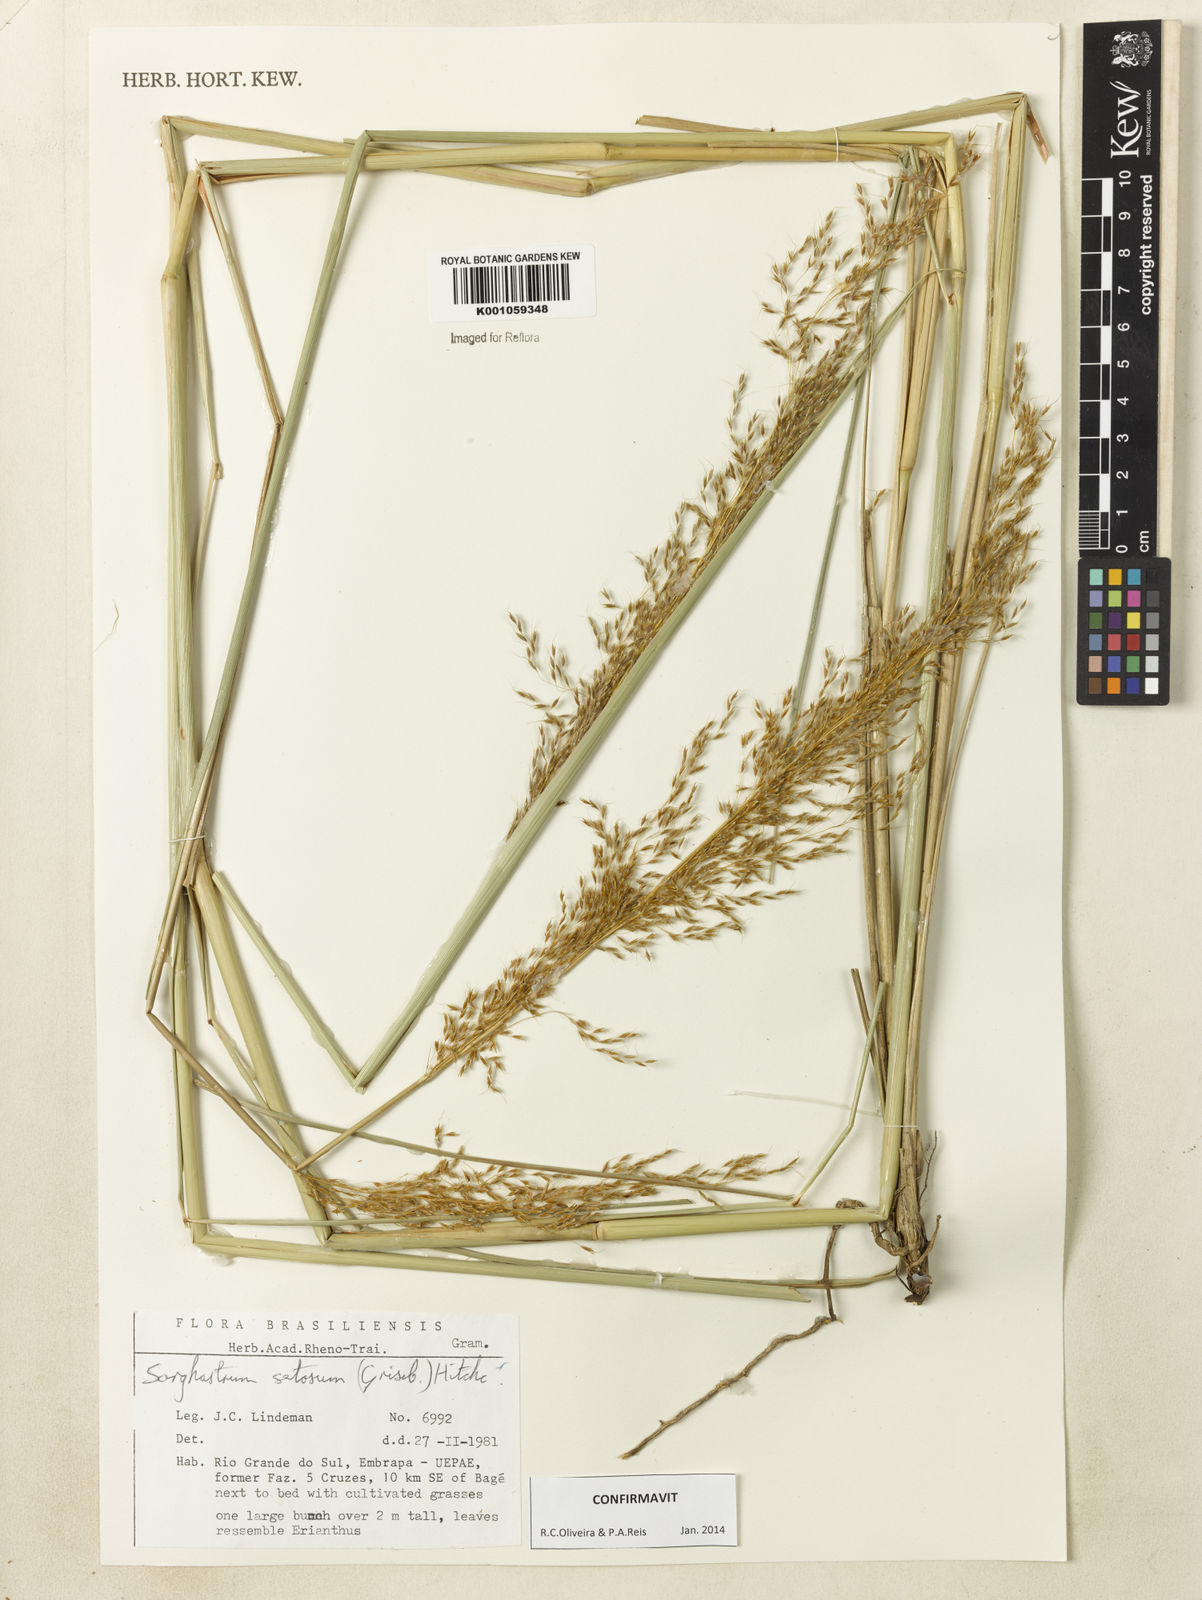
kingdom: Plantae
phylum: Tracheophyta
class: Liliopsida
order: Poales
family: Poaceae
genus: Sorghastrum
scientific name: Sorghastrum setosum
